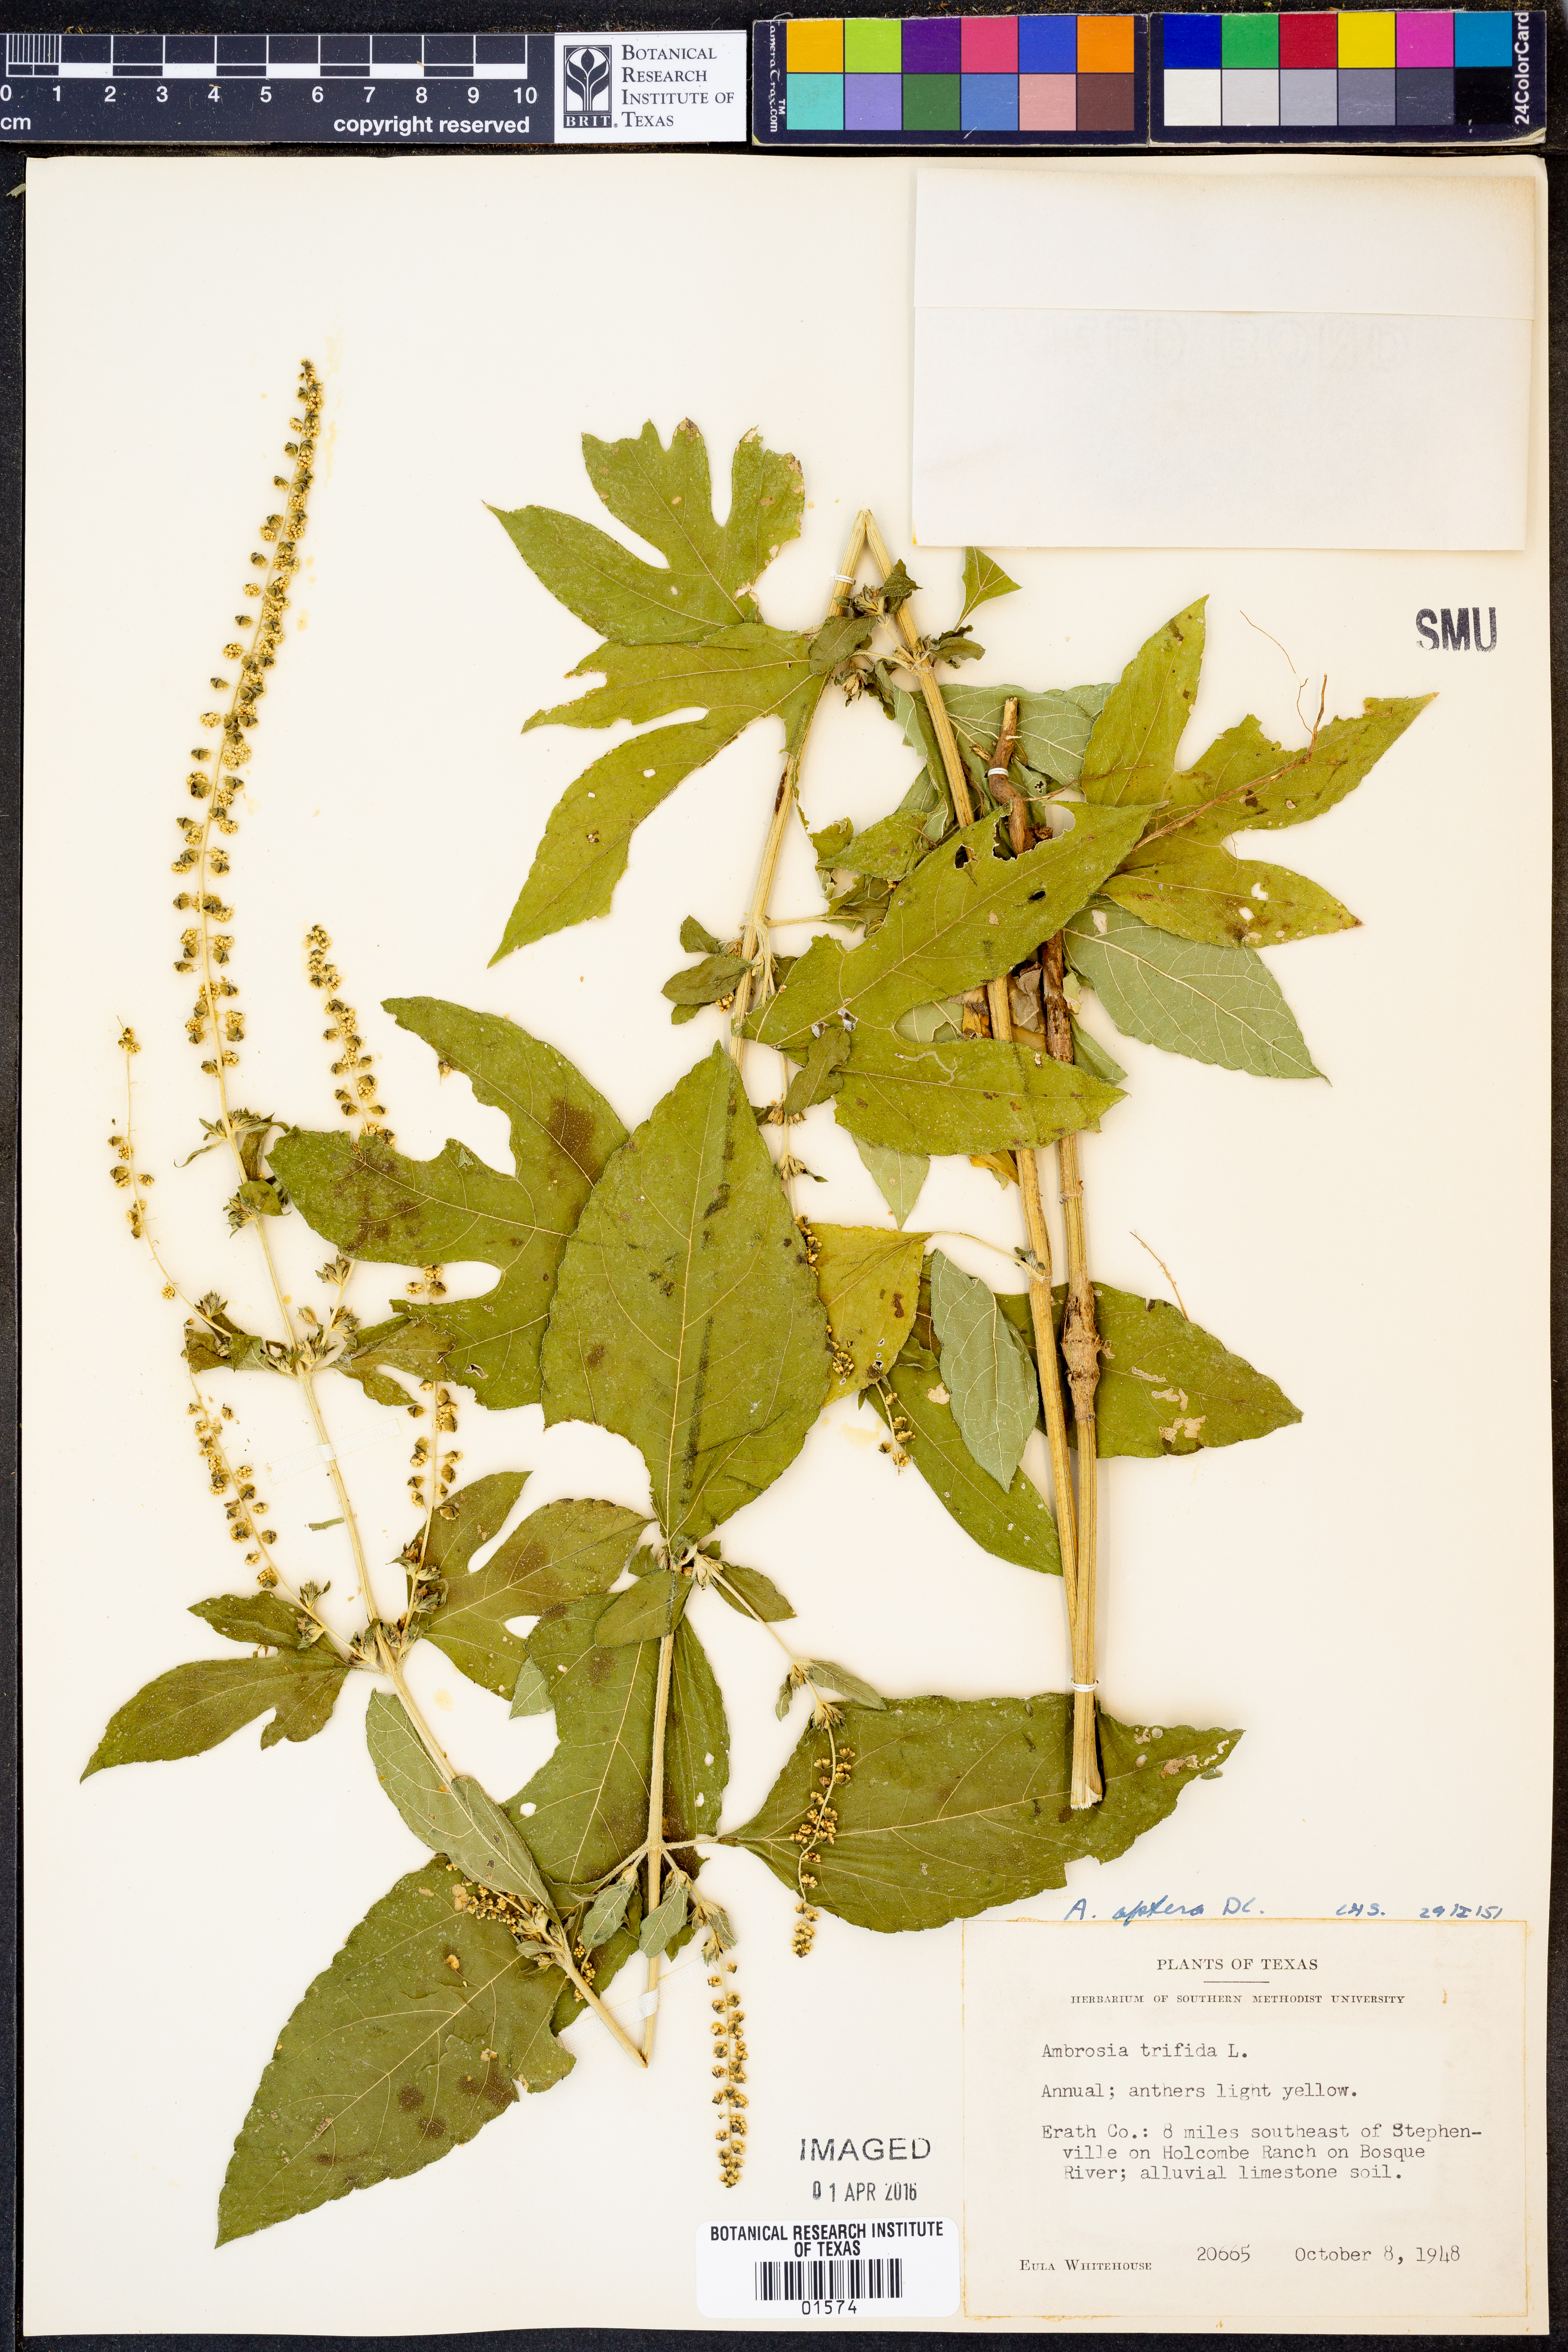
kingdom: Plantae
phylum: Tracheophyta
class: Magnoliopsida
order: Asterales
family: Asteraceae
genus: Ambrosia
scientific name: Ambrosia trifida
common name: Giant ragweed
